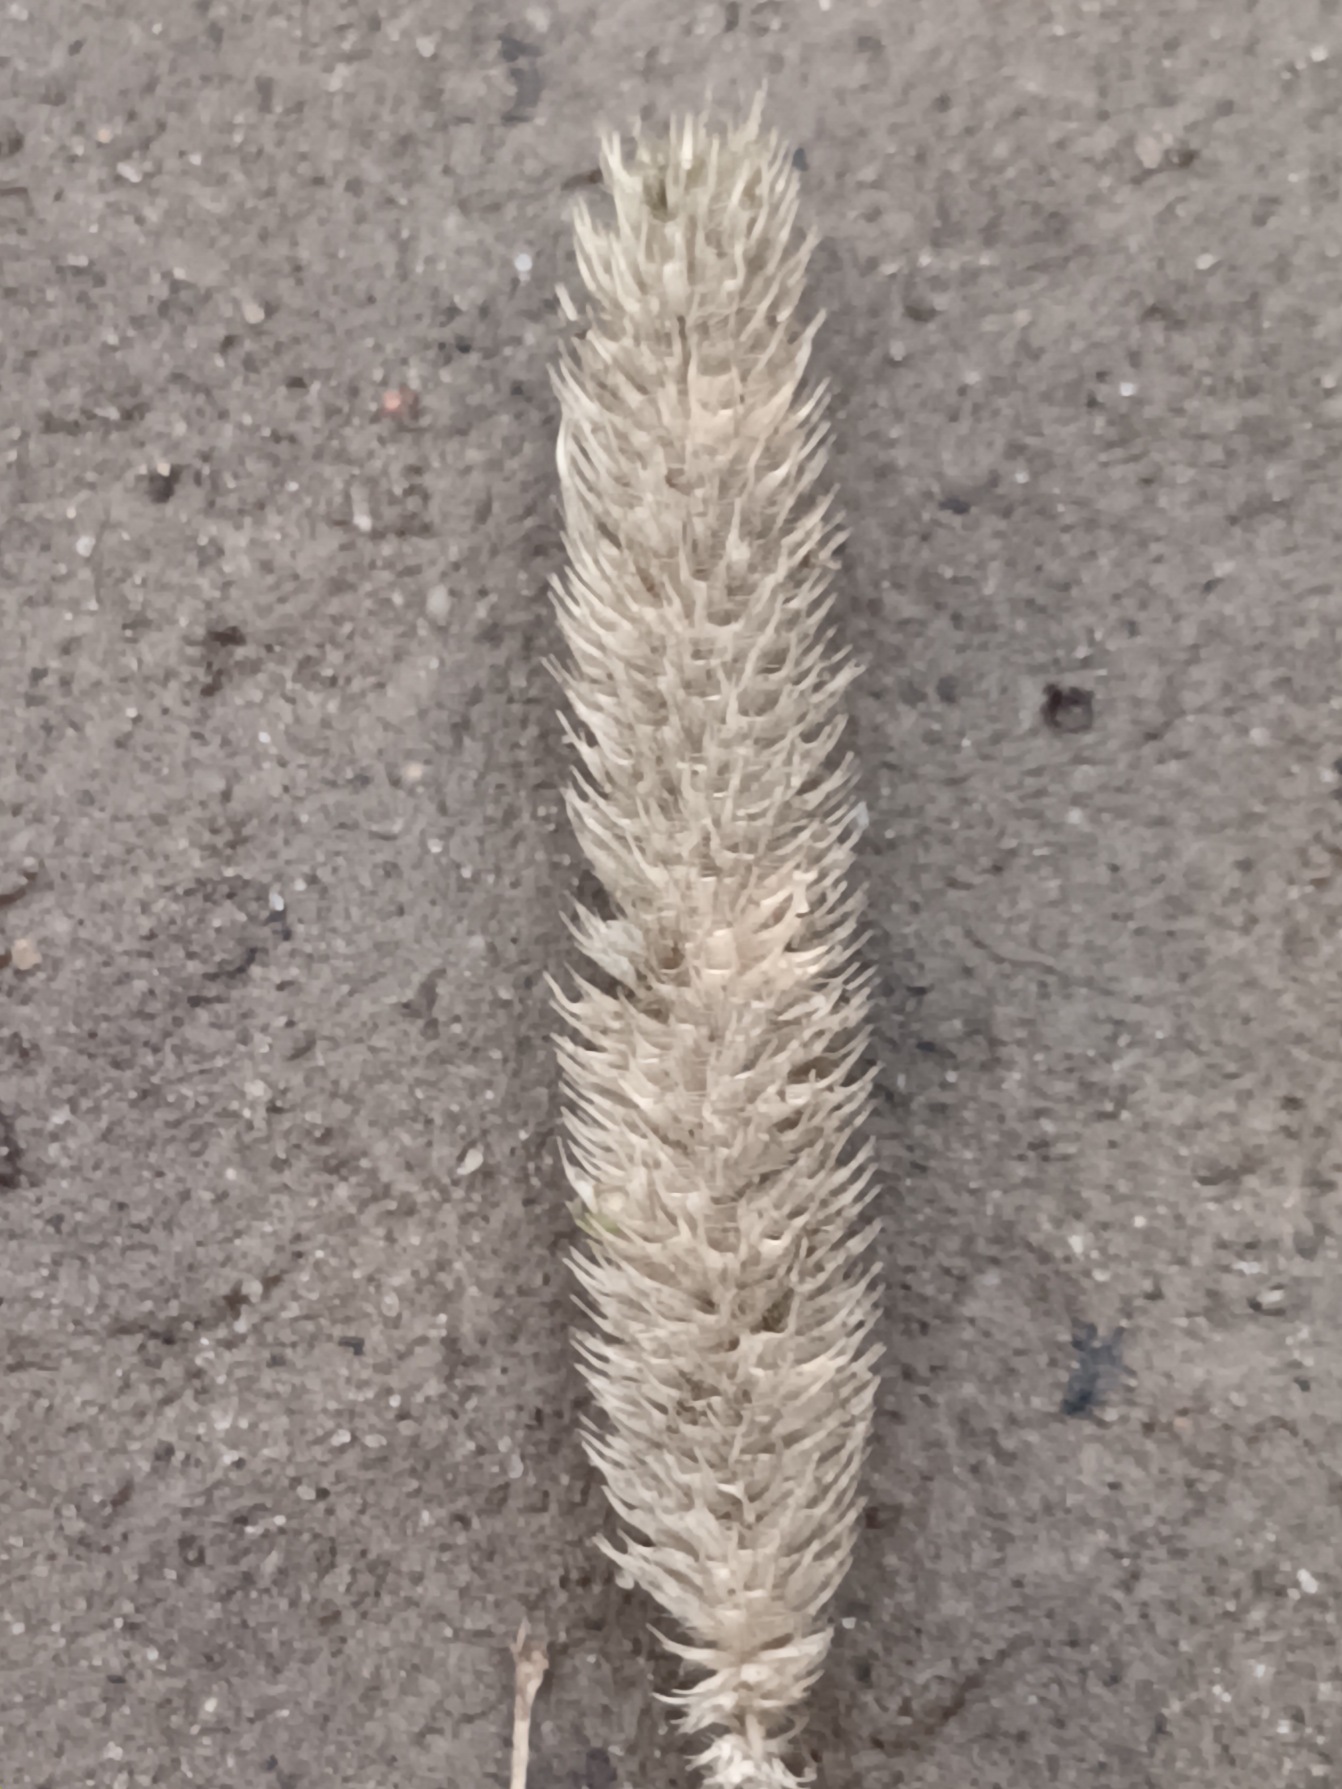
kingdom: Plantae
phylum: Tracheophyta
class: Liliopsida
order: Poales
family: Poaceae
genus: Phleum
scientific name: Phleum pratense
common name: Eng-rottehale
